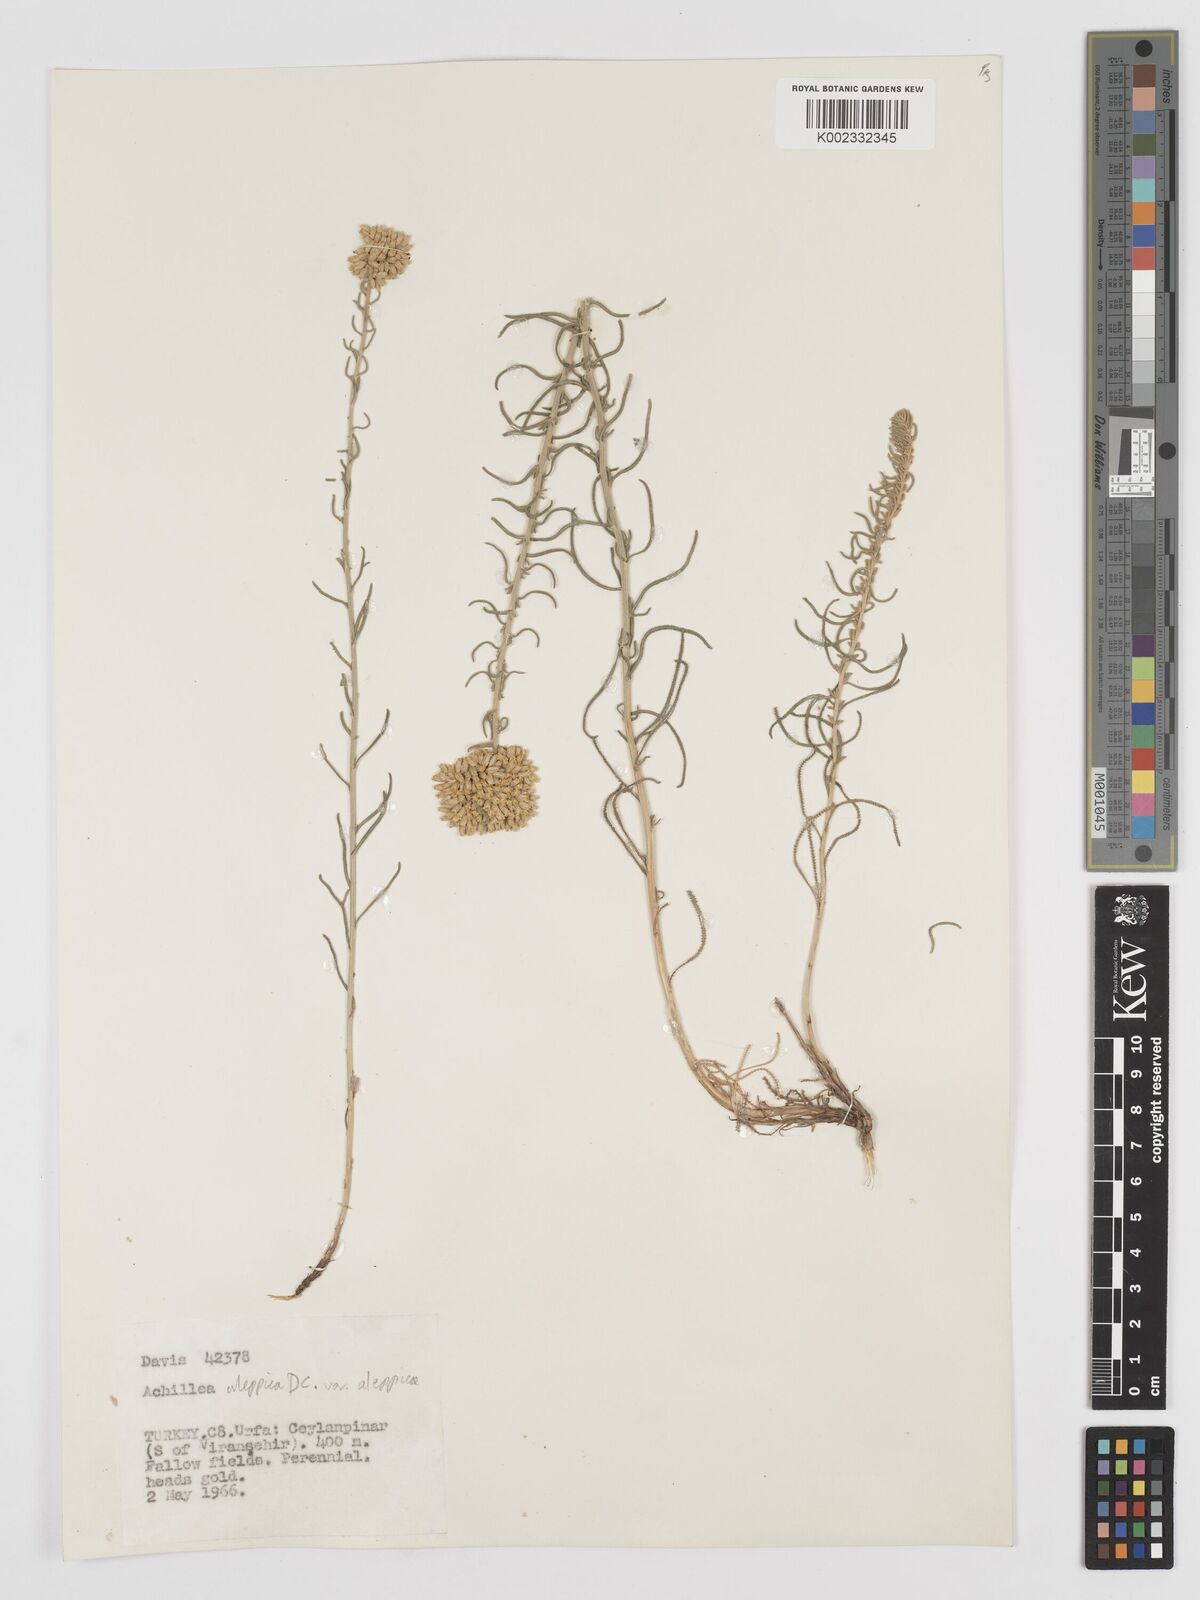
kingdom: Plantae
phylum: Tracheophyta
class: Magnoliopsida
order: Asterales
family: Asteraceae
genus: Achillea
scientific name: Achillea aleppica
